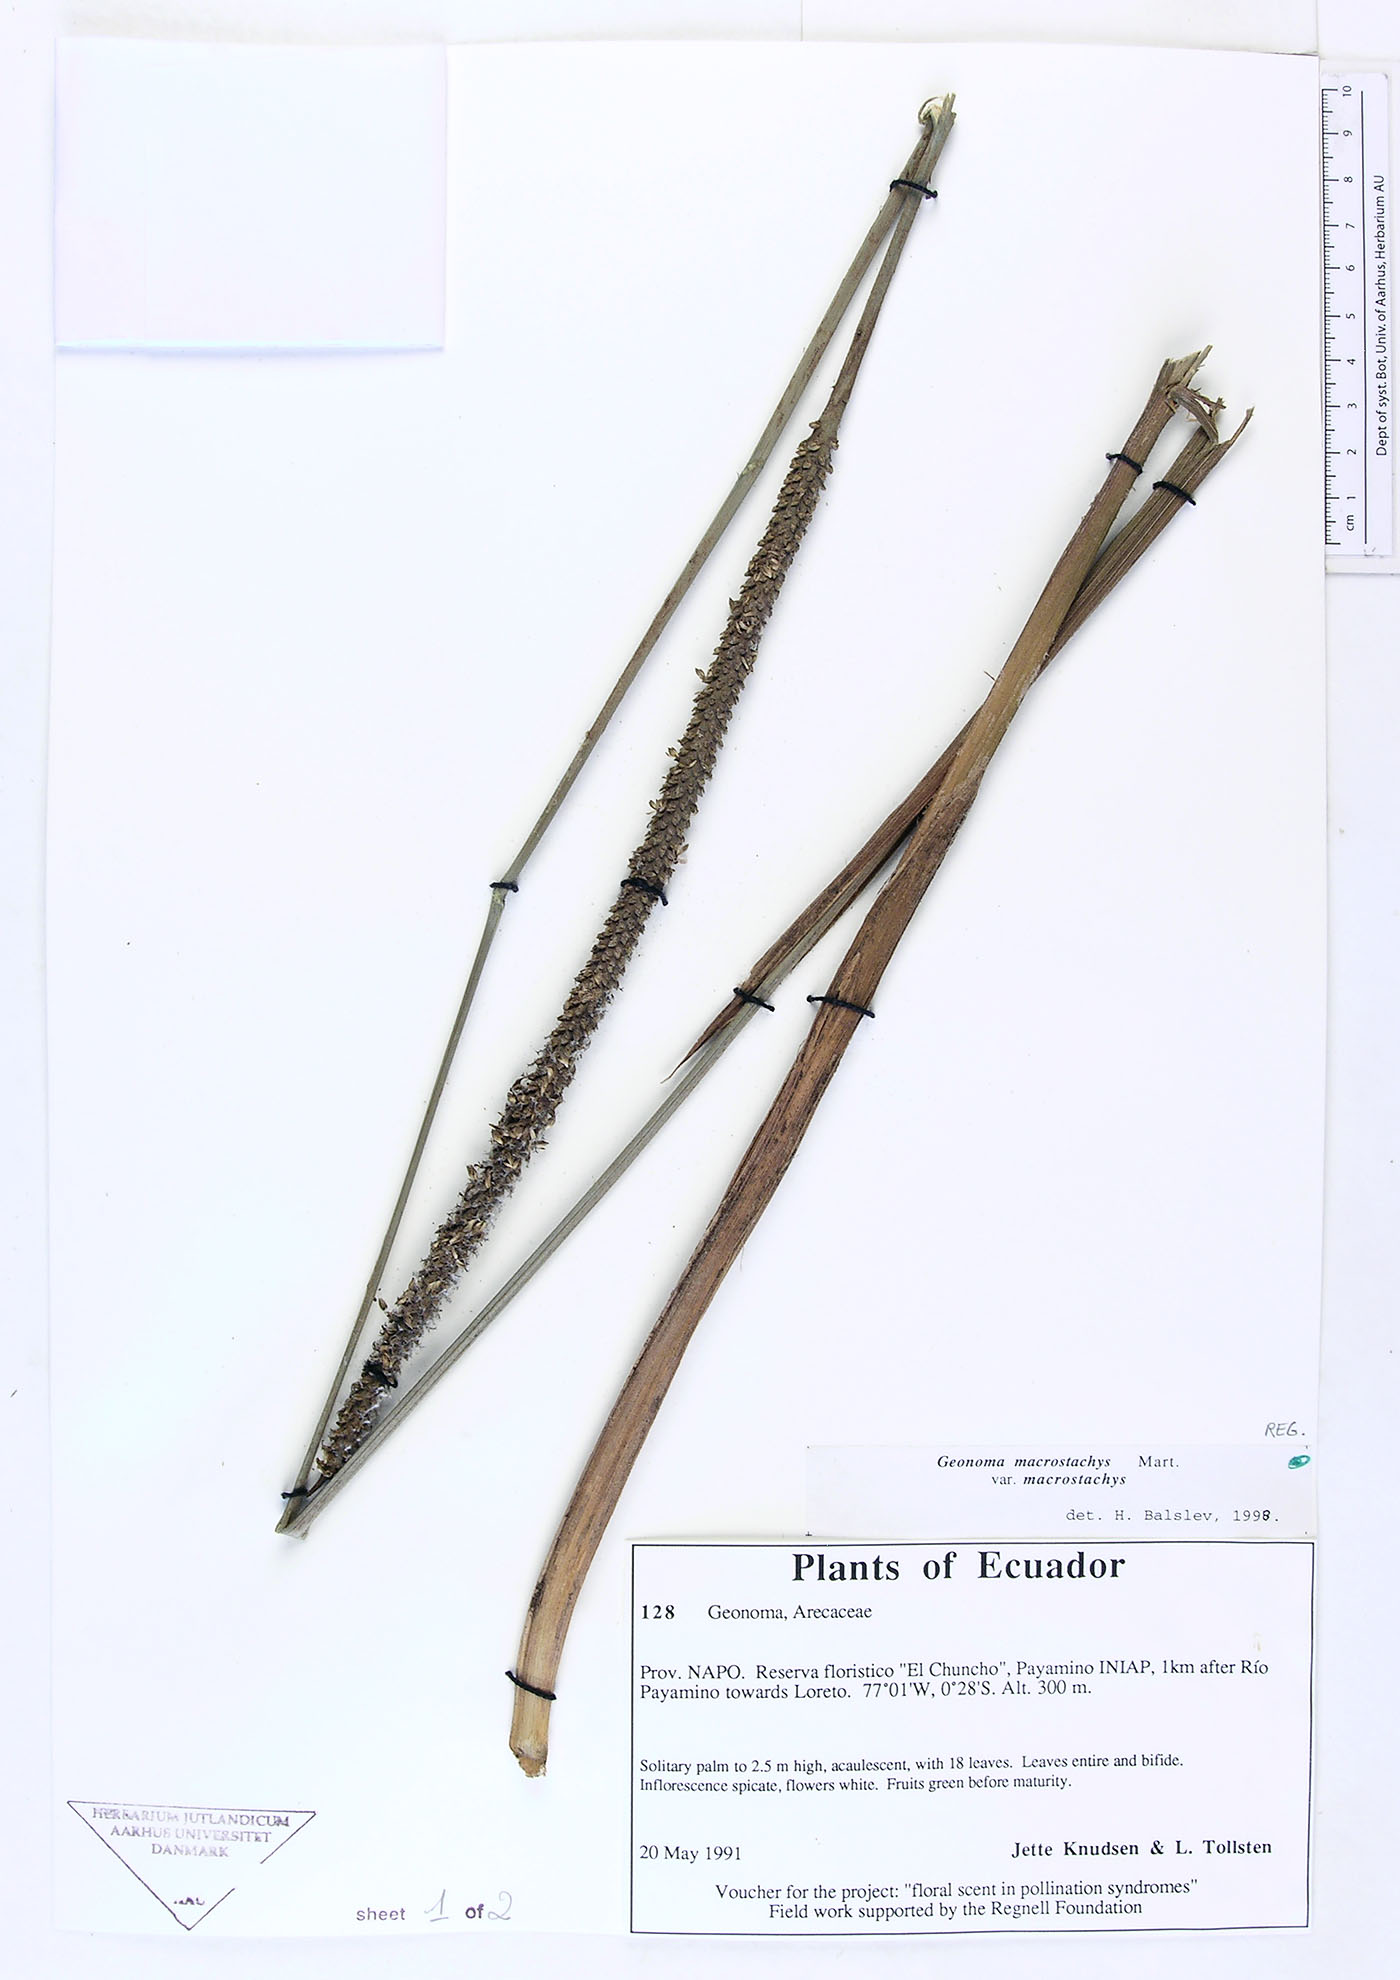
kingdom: Plantae
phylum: Tracheophyta
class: Liliopsida
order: Arecales
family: Arecaceae
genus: Geonoma
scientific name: Geonoma macrostachys
